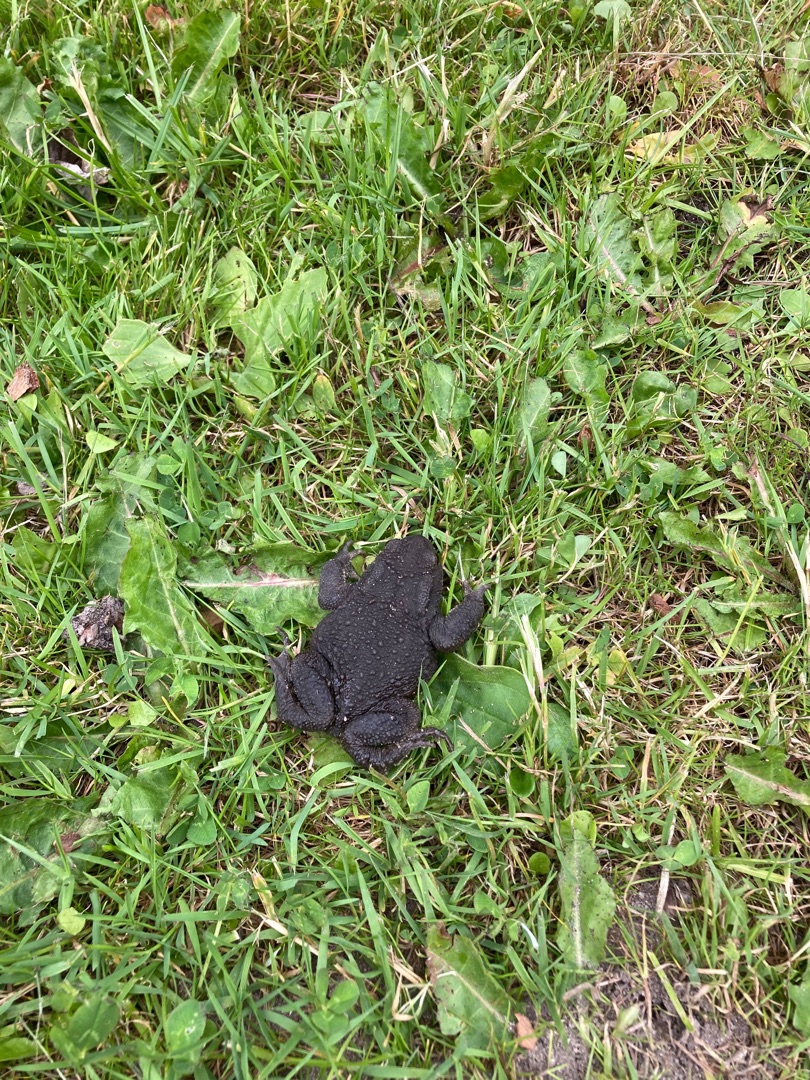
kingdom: Animalia
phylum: Chordata
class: Amphibia
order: Anura
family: Bufonidae
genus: Bufo
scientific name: Bufo bufo
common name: Skrubtudse
